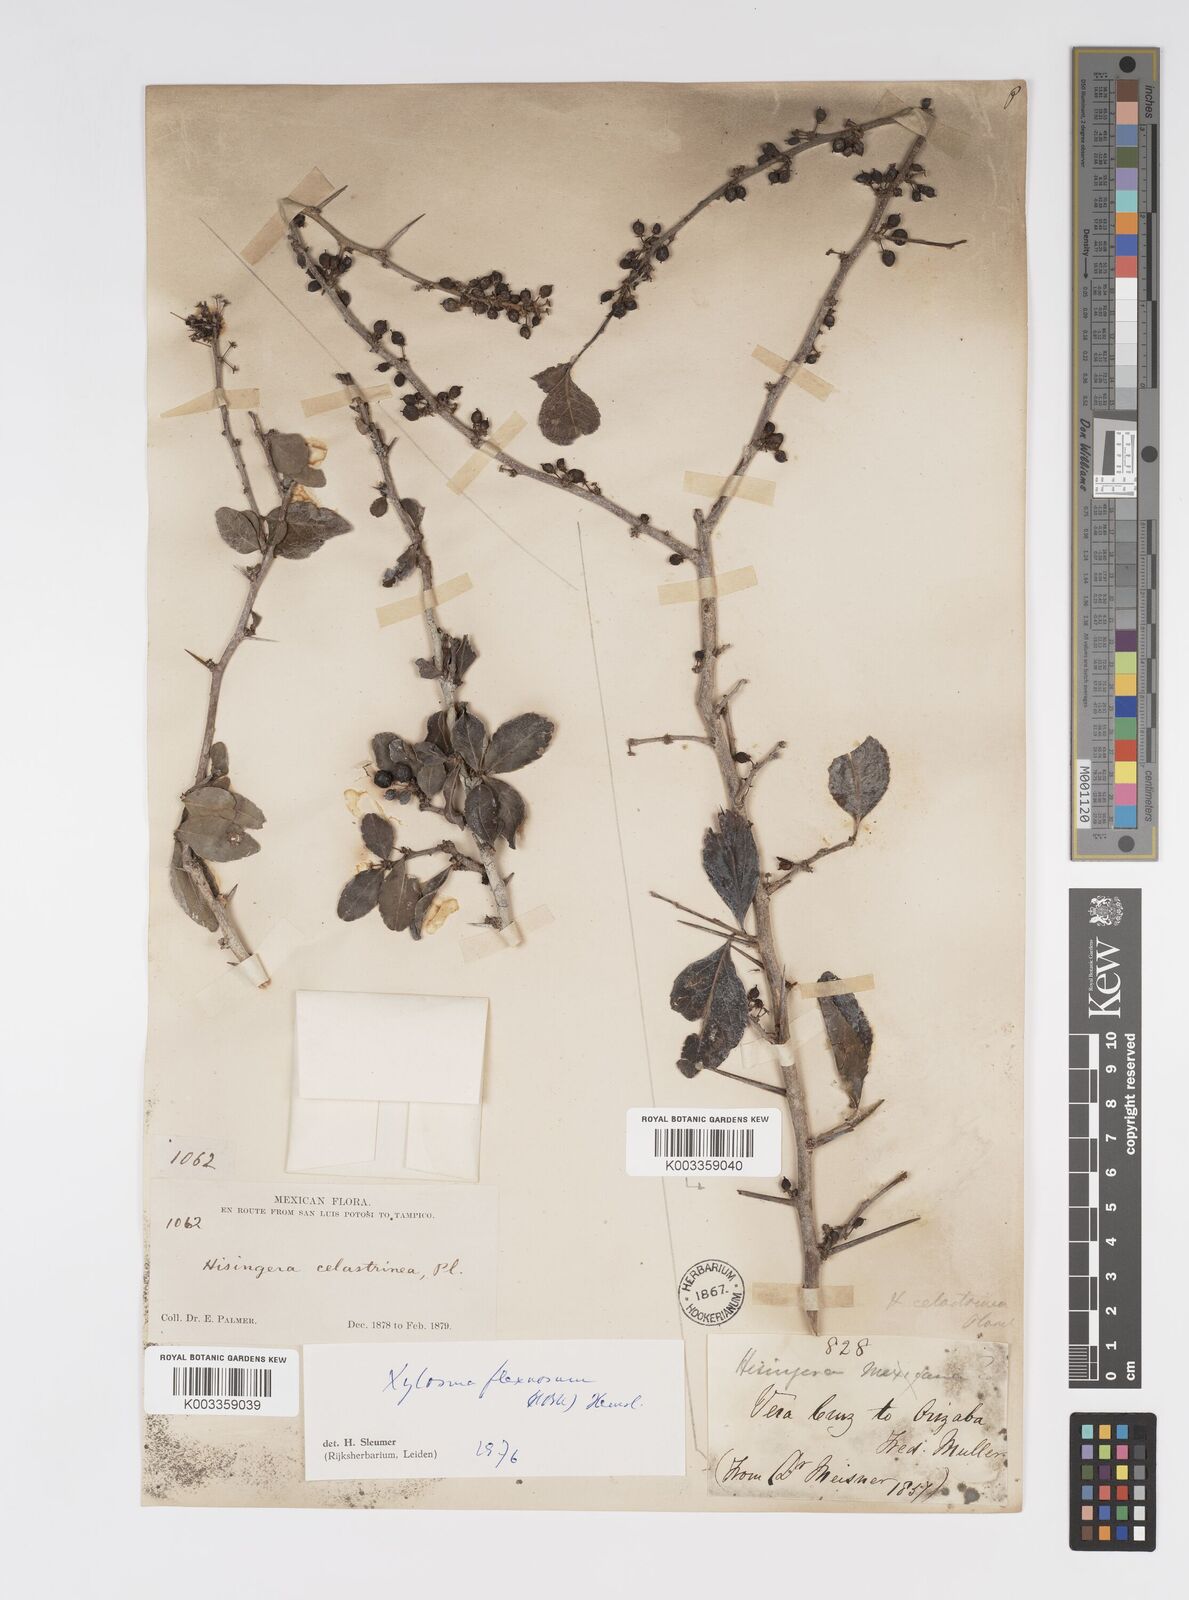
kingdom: Plantae
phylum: Tracheophyta
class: Magnoliopsida
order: Malpighiales
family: Salicaceae
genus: Xylosma
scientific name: Xylosma flexuosa
